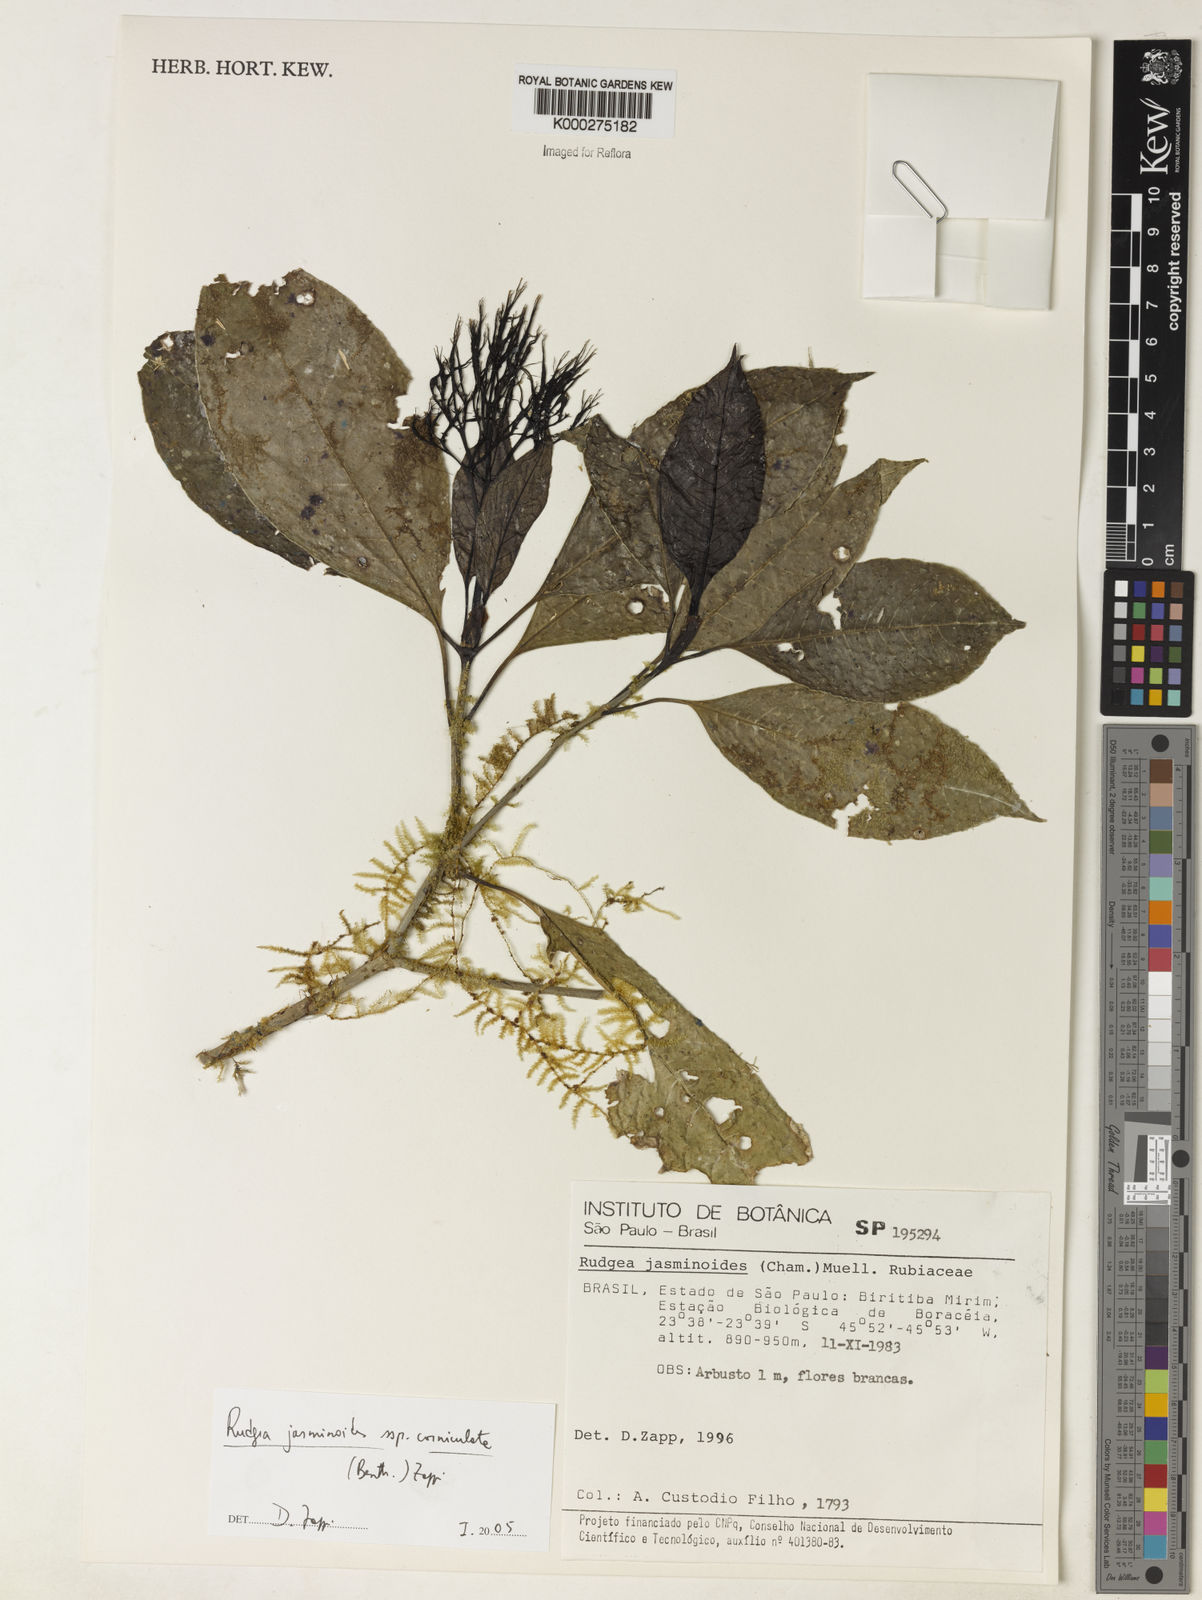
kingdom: Plantae
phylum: Tracheophyta
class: Magnoliopsida
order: Gentianales
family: Rubiaceae
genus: Rudgea
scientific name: Rudgea jasminoides
